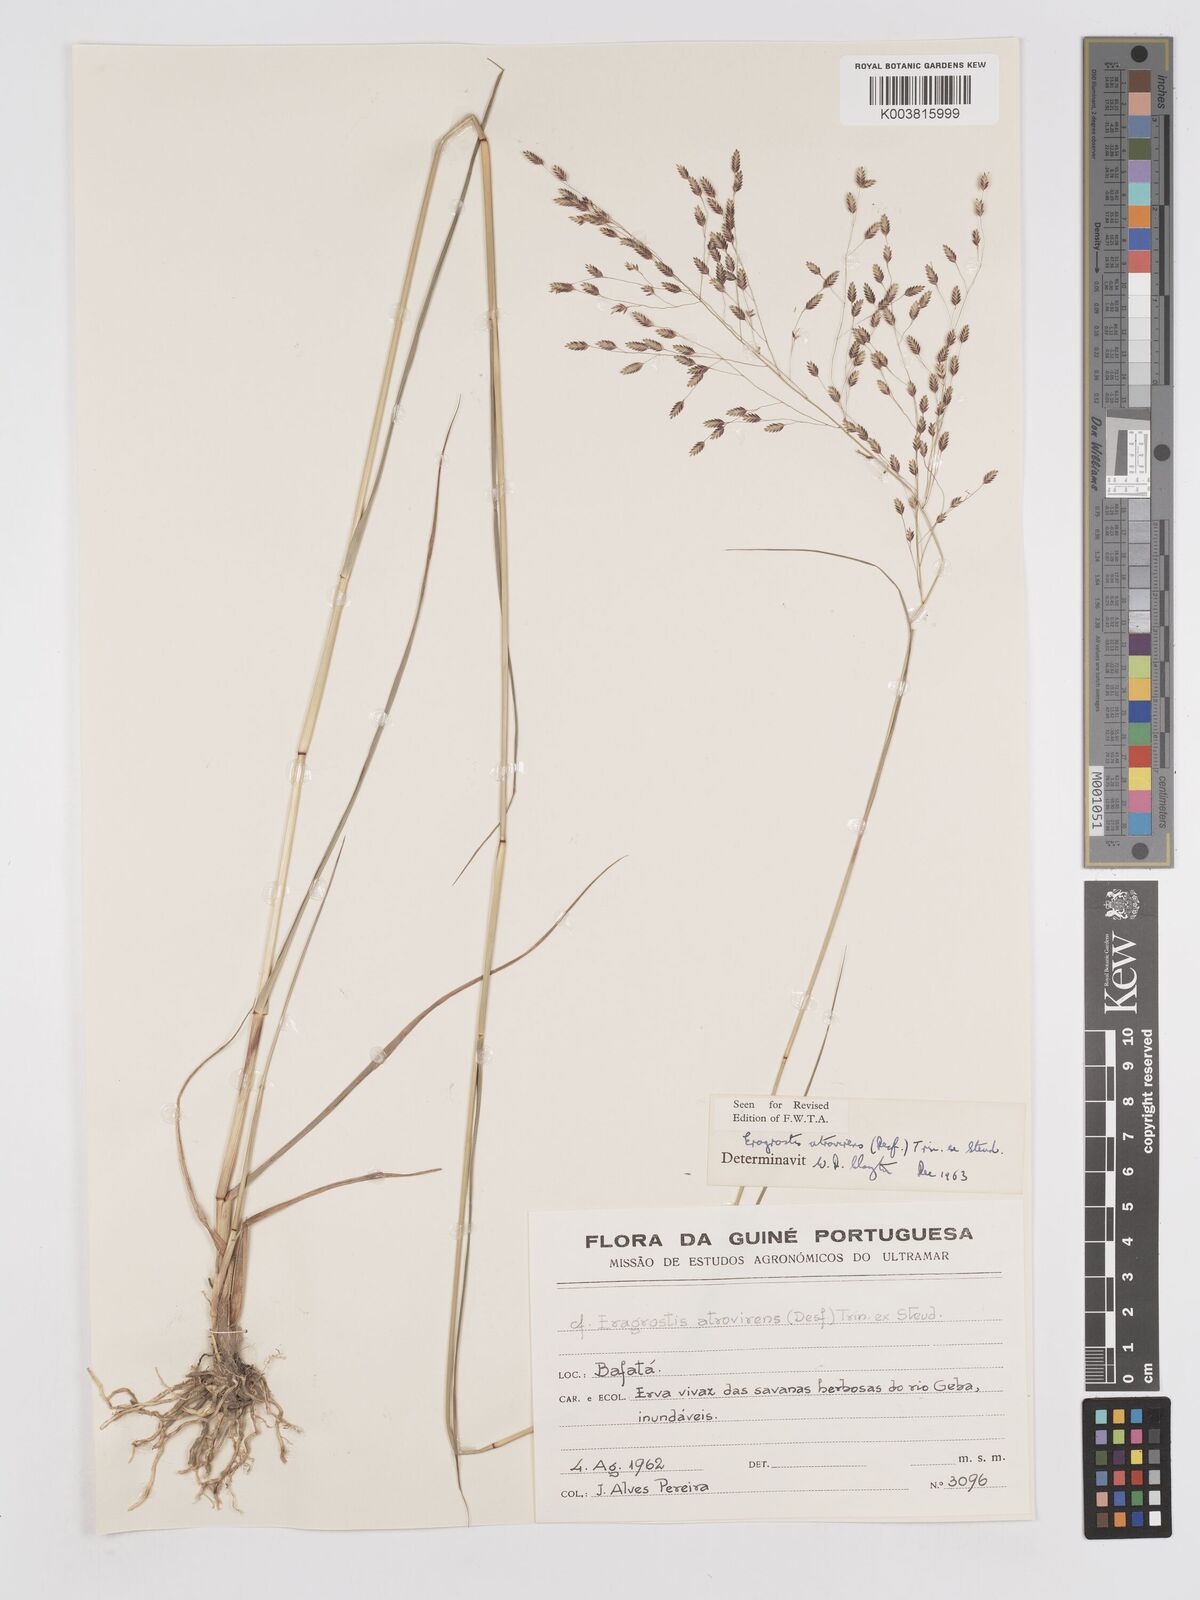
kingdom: Plantae
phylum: Tracheophyta
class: Liliopsida
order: Poales
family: Poaceae
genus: Eragrostis
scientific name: Eragrostis atrovirens
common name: Thalia lovegrass
